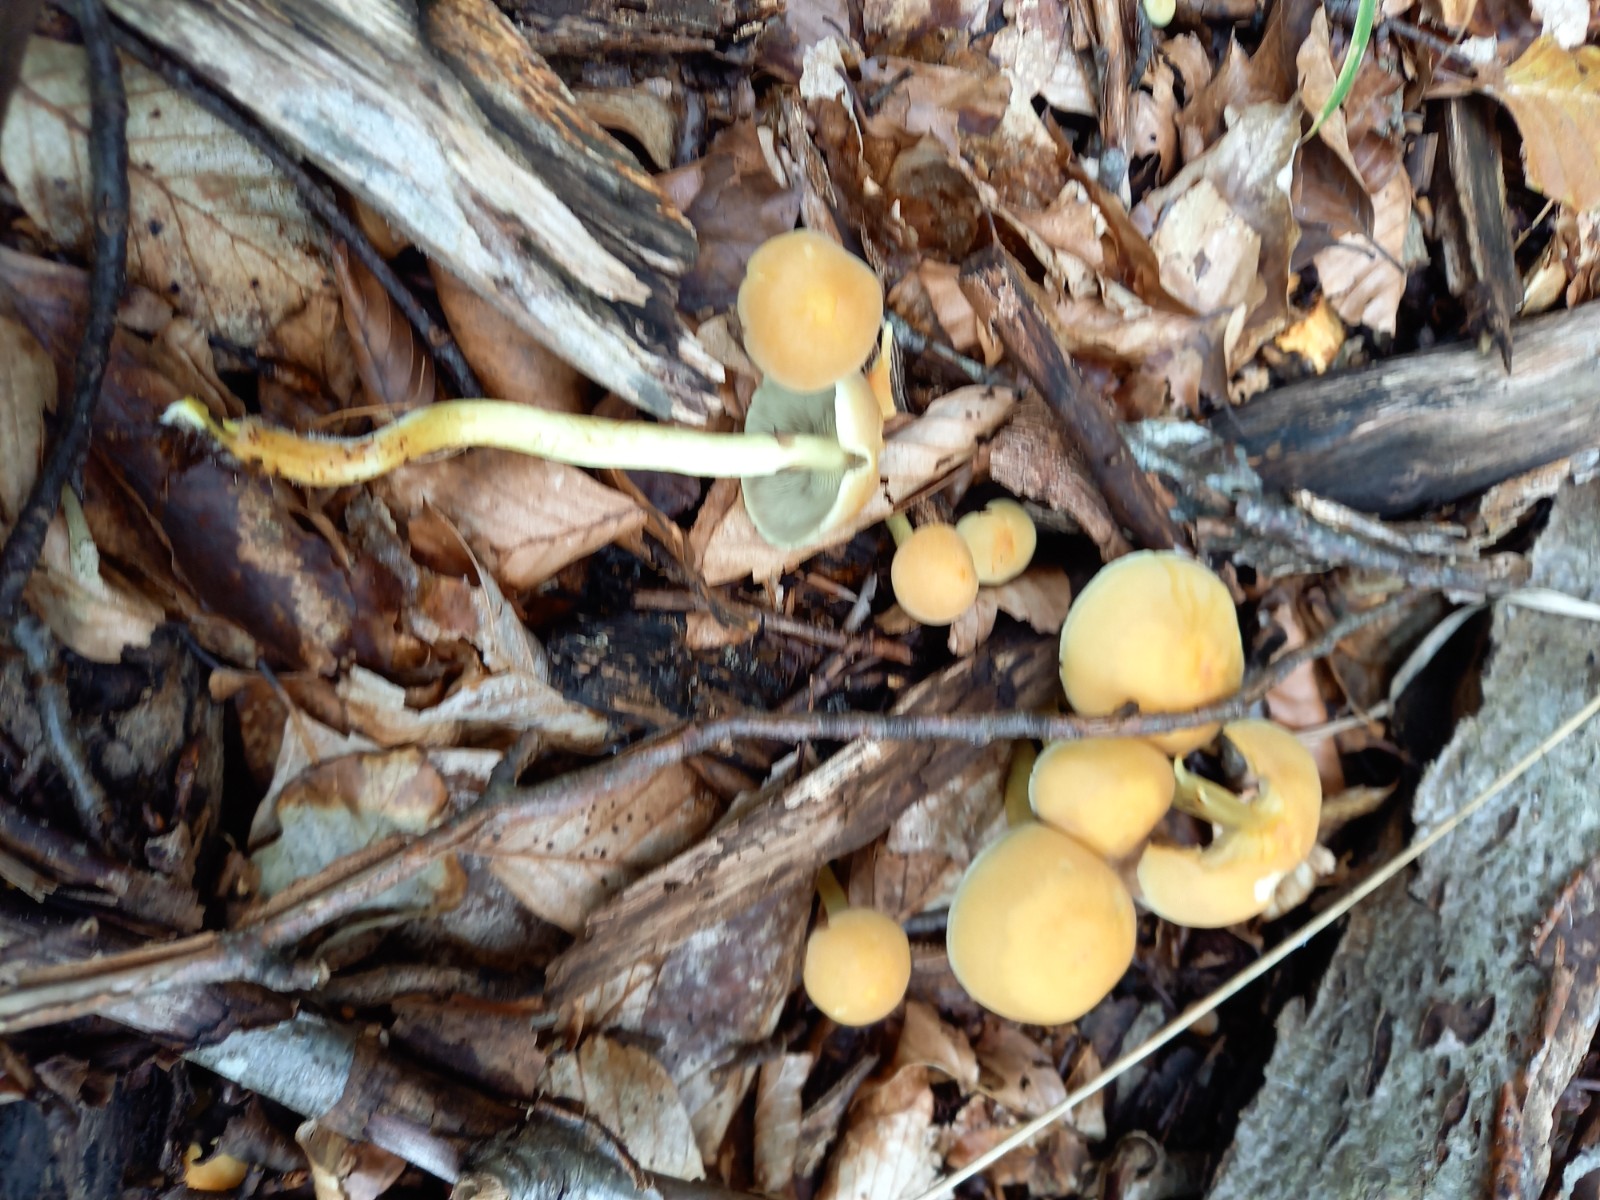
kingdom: Fungi
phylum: Basidiomycota
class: Agaricomycetes
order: Agaricales
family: Strophariaceae
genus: Hypholoma
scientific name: Hypholoma fasciculare
